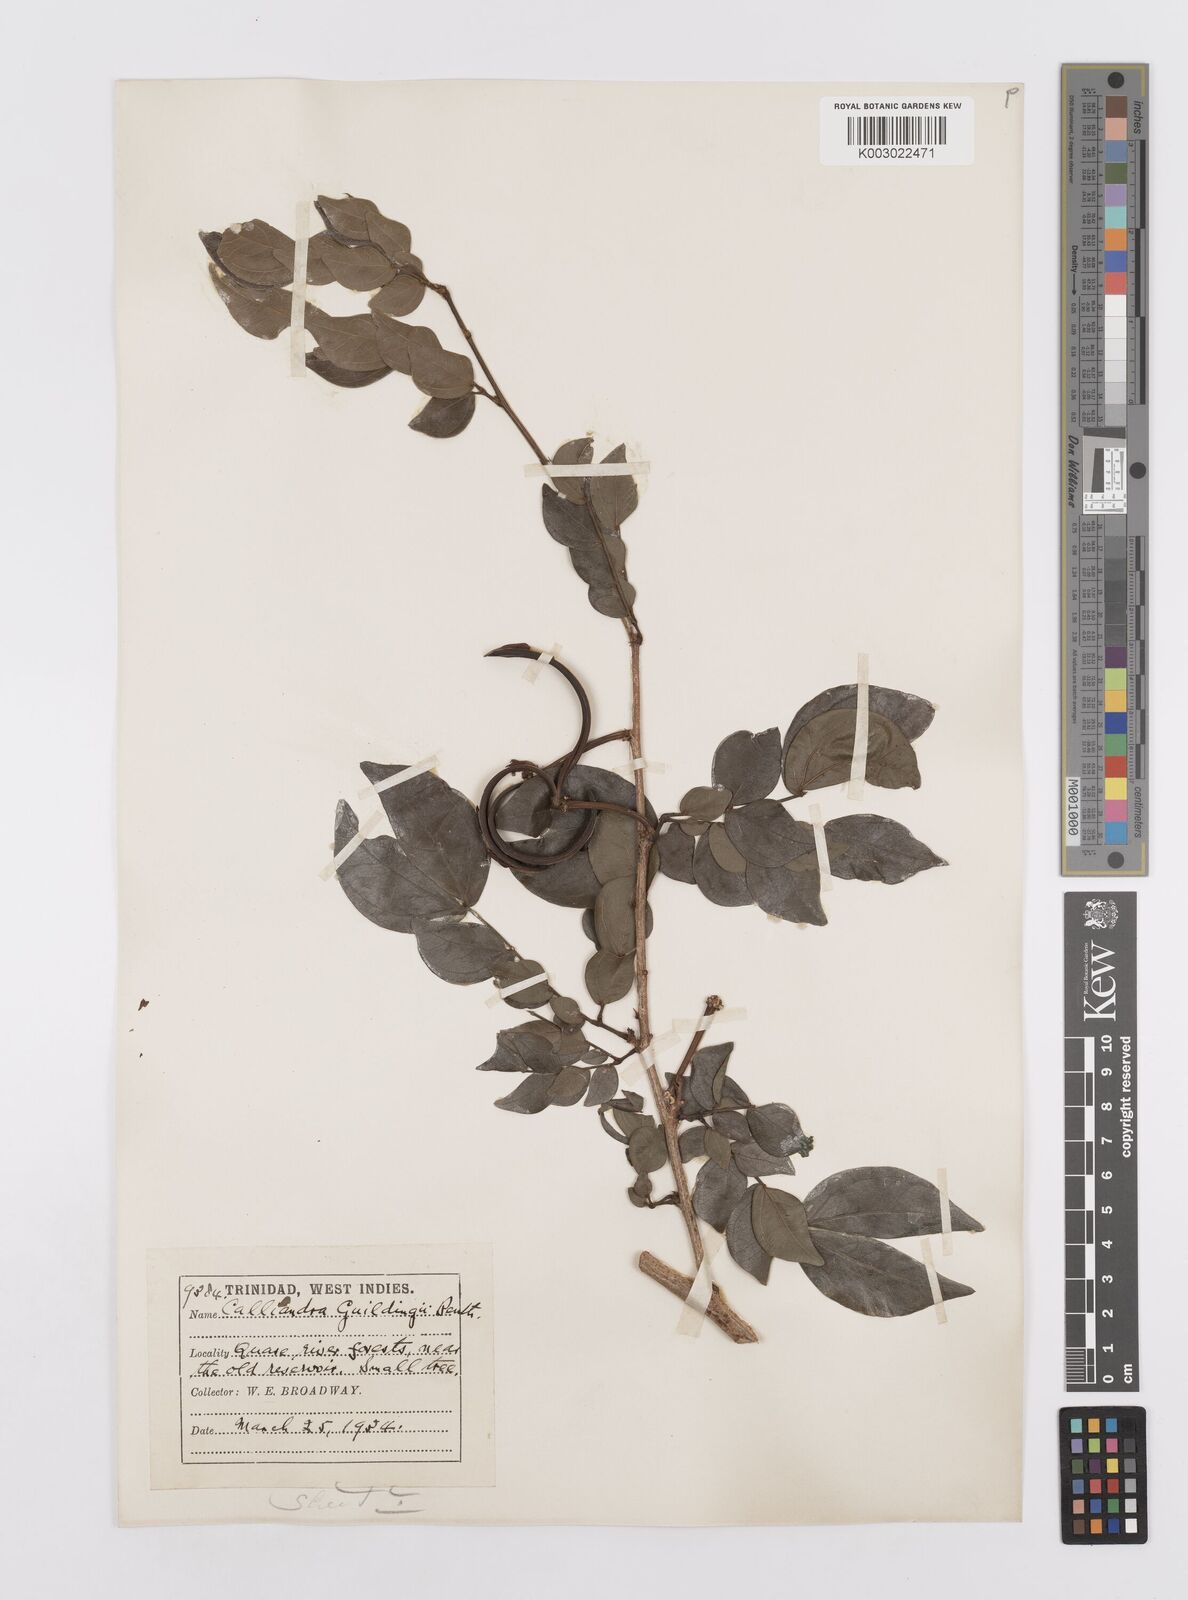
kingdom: Plantae
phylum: Tracheophyta
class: Magnoliopsida
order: Fabales
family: Fabaceae
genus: Calliandra
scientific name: Calliandra guildingii
